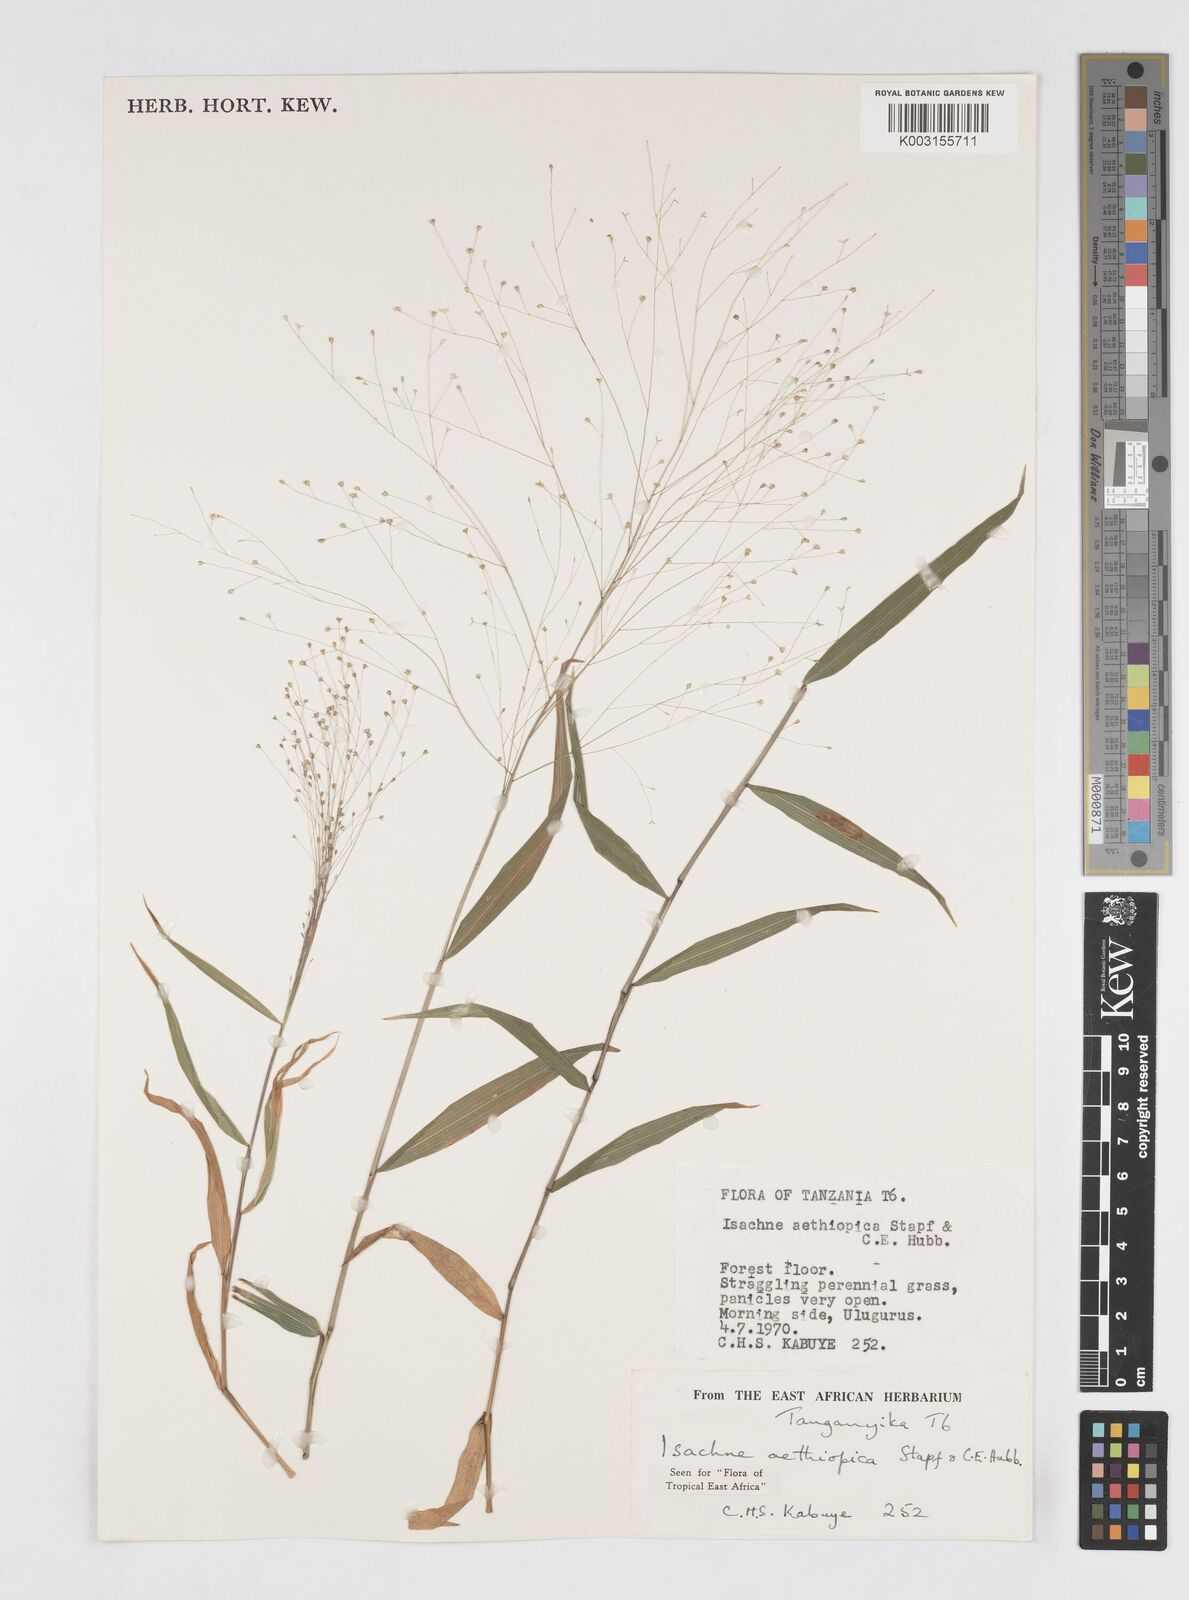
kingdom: Plantae
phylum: Tracheophyta
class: Liliopsida
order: Poales
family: Poaceae
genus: Isachne
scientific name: Isachne mauritiana
